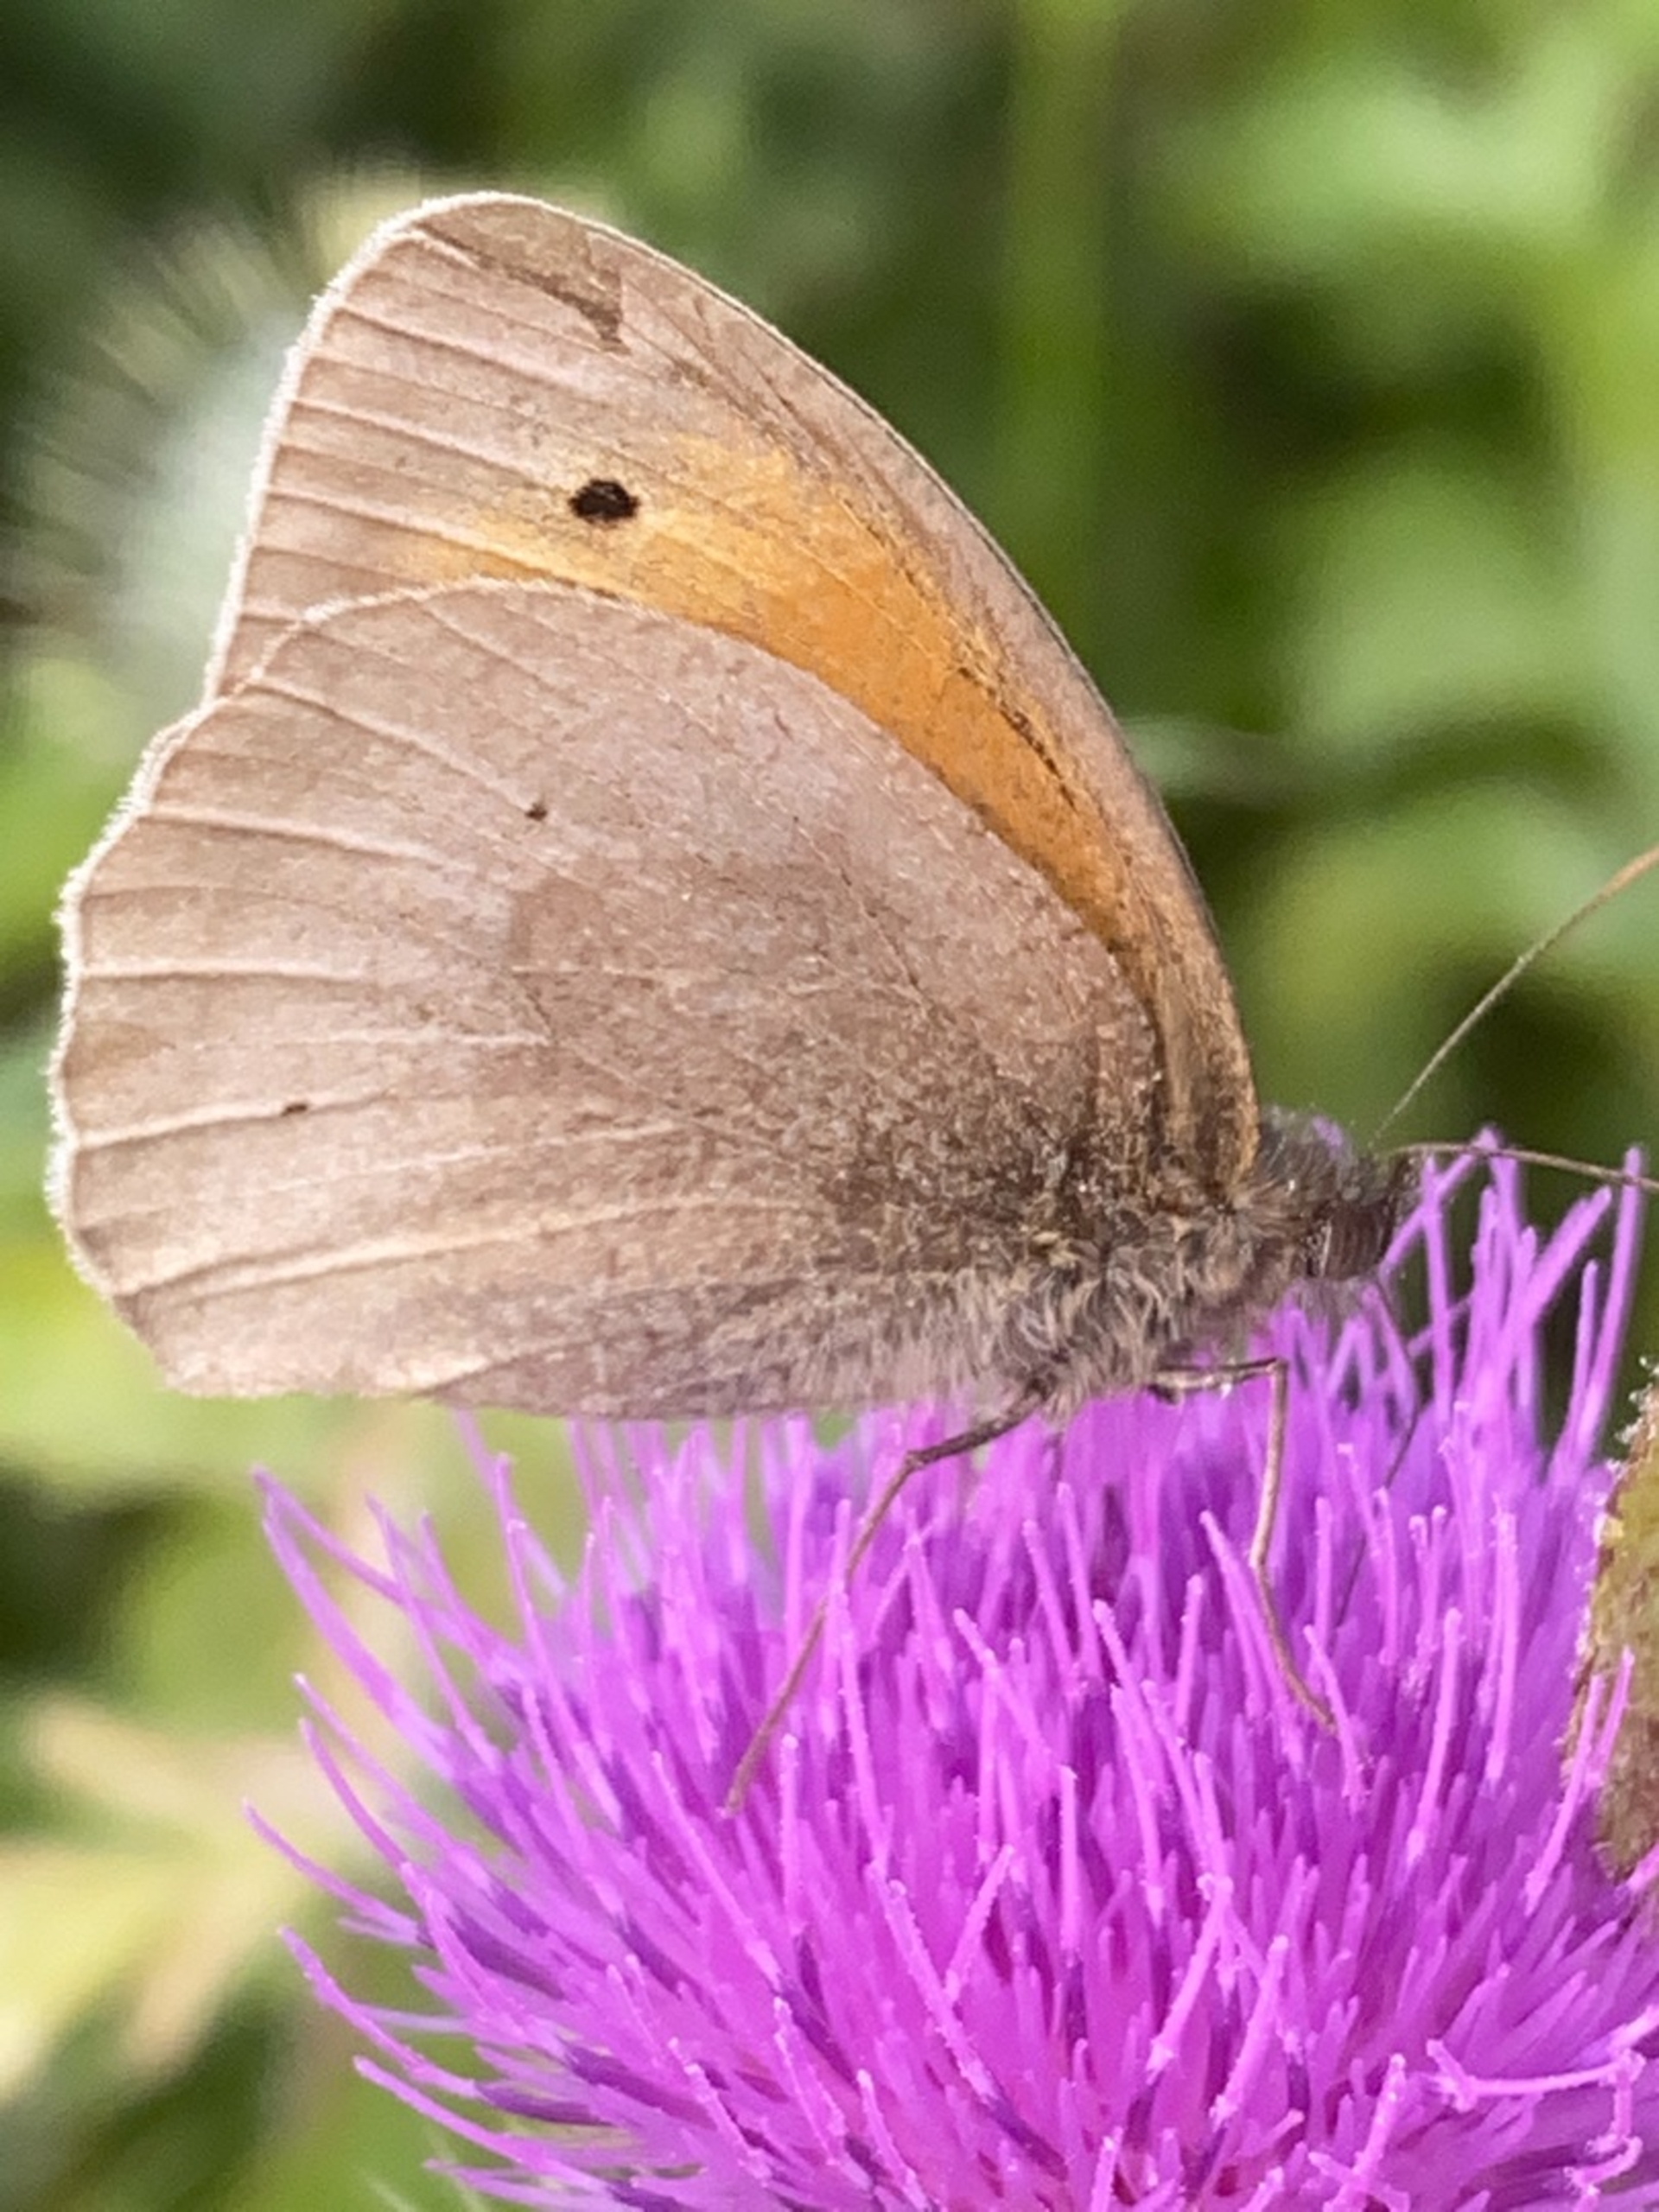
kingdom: Animalia
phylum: Arthropoda
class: Insecta
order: Lepidoptera
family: Nymphalidae
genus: Maniola
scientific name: Maniola jurtina
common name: Græsrandøje
